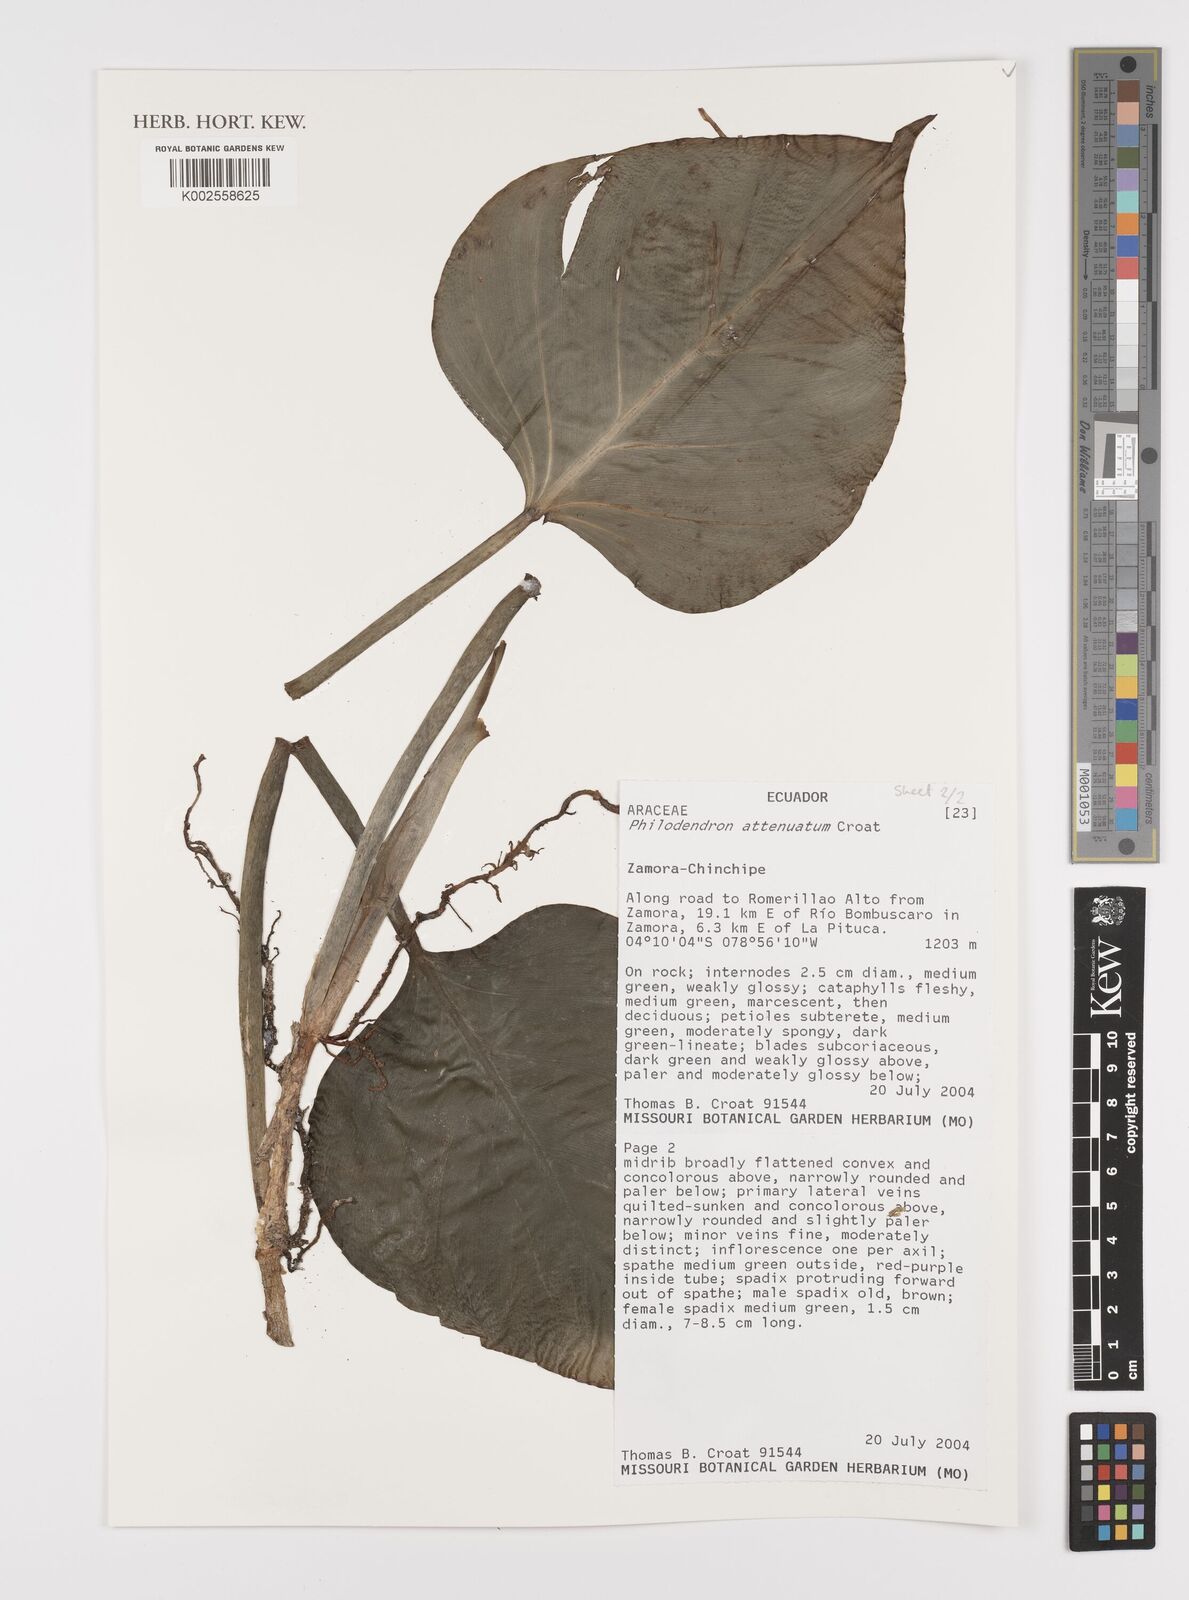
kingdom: Plantae
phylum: Tracheophyta
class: Liliopsida
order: Alismatales
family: Araceae
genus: Philodendron
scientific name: Philodendron attenuatum
